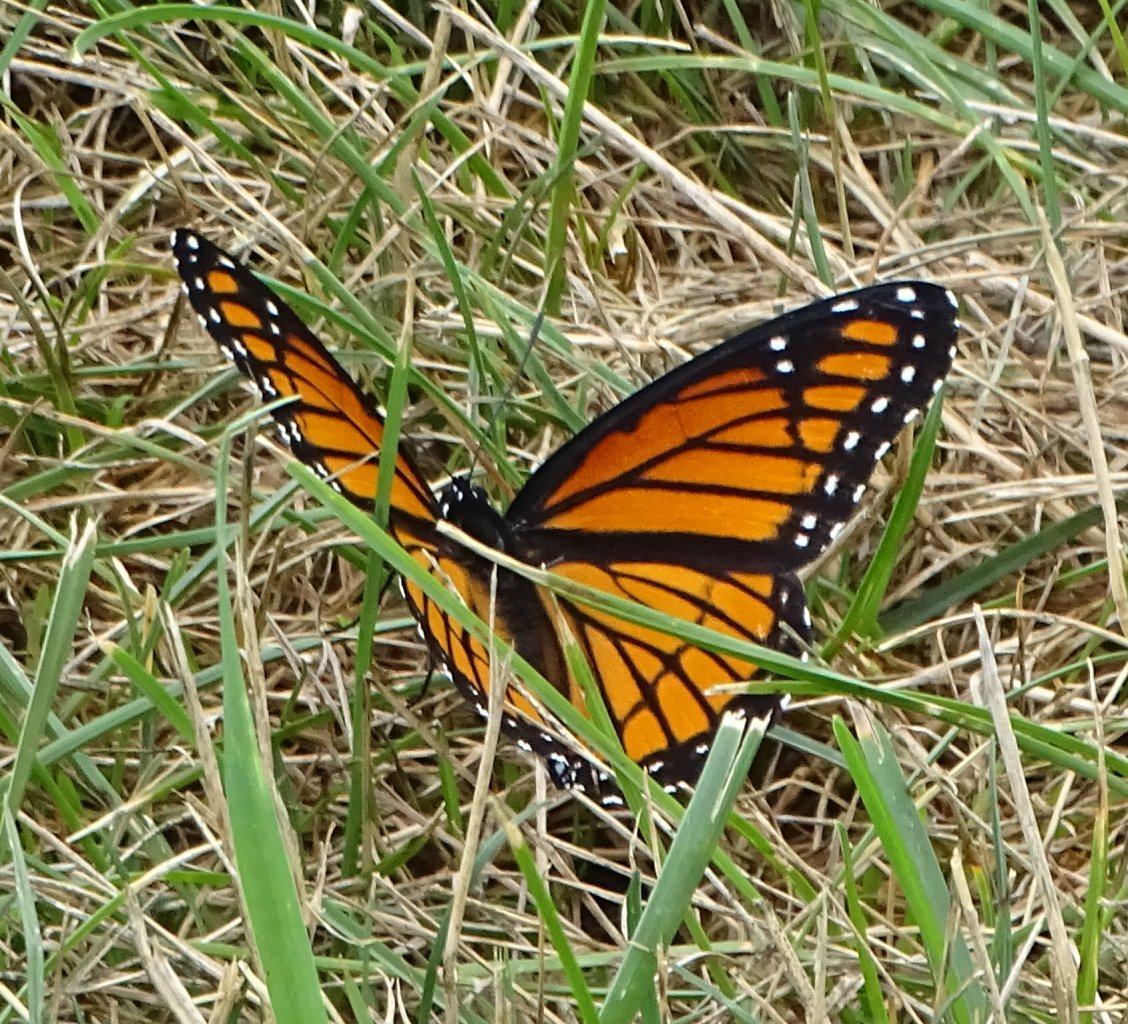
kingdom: Animalia
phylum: Arthropoda
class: Insecta
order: Lepidoptera
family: Nymphalidae
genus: Limenitis
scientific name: Limenitis archippus
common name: Viceroy
